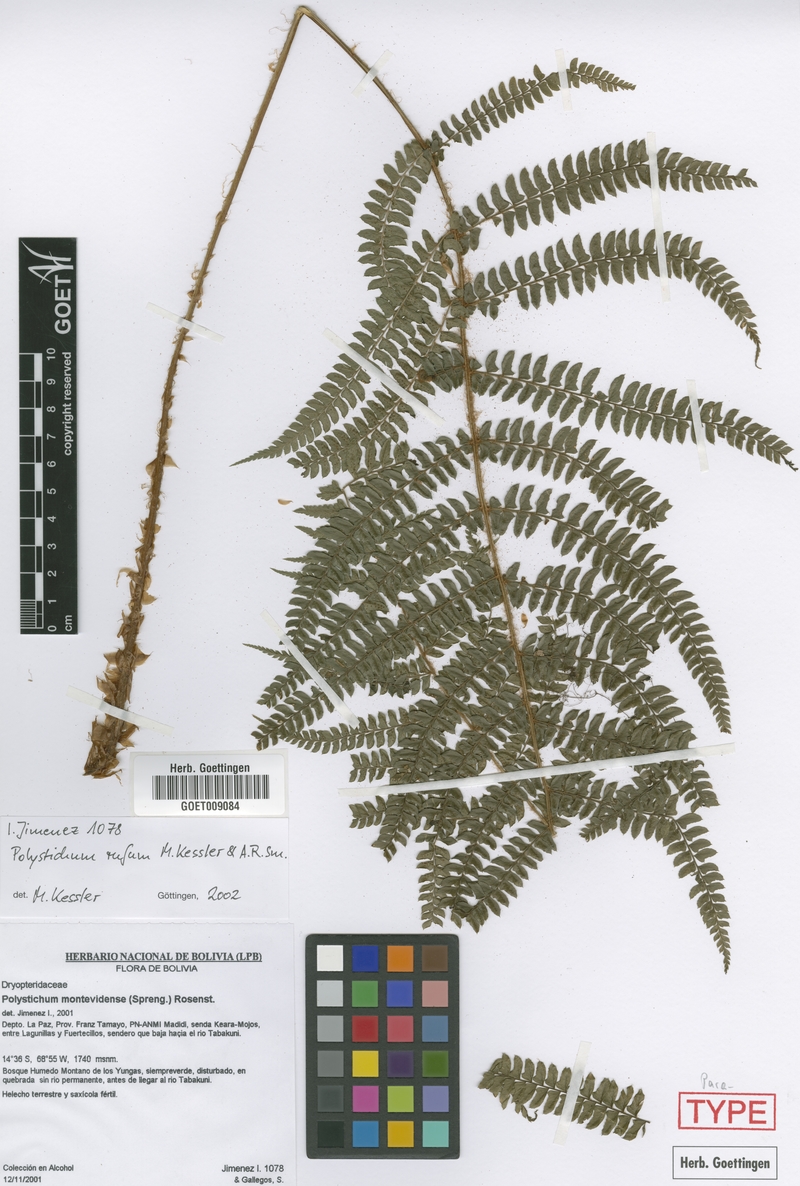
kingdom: Plantae
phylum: Tracheophyta
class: Polypodiopsida
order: Polypodiales
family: Dryopteridaceae
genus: Polystichum
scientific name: Polystichum rufum
